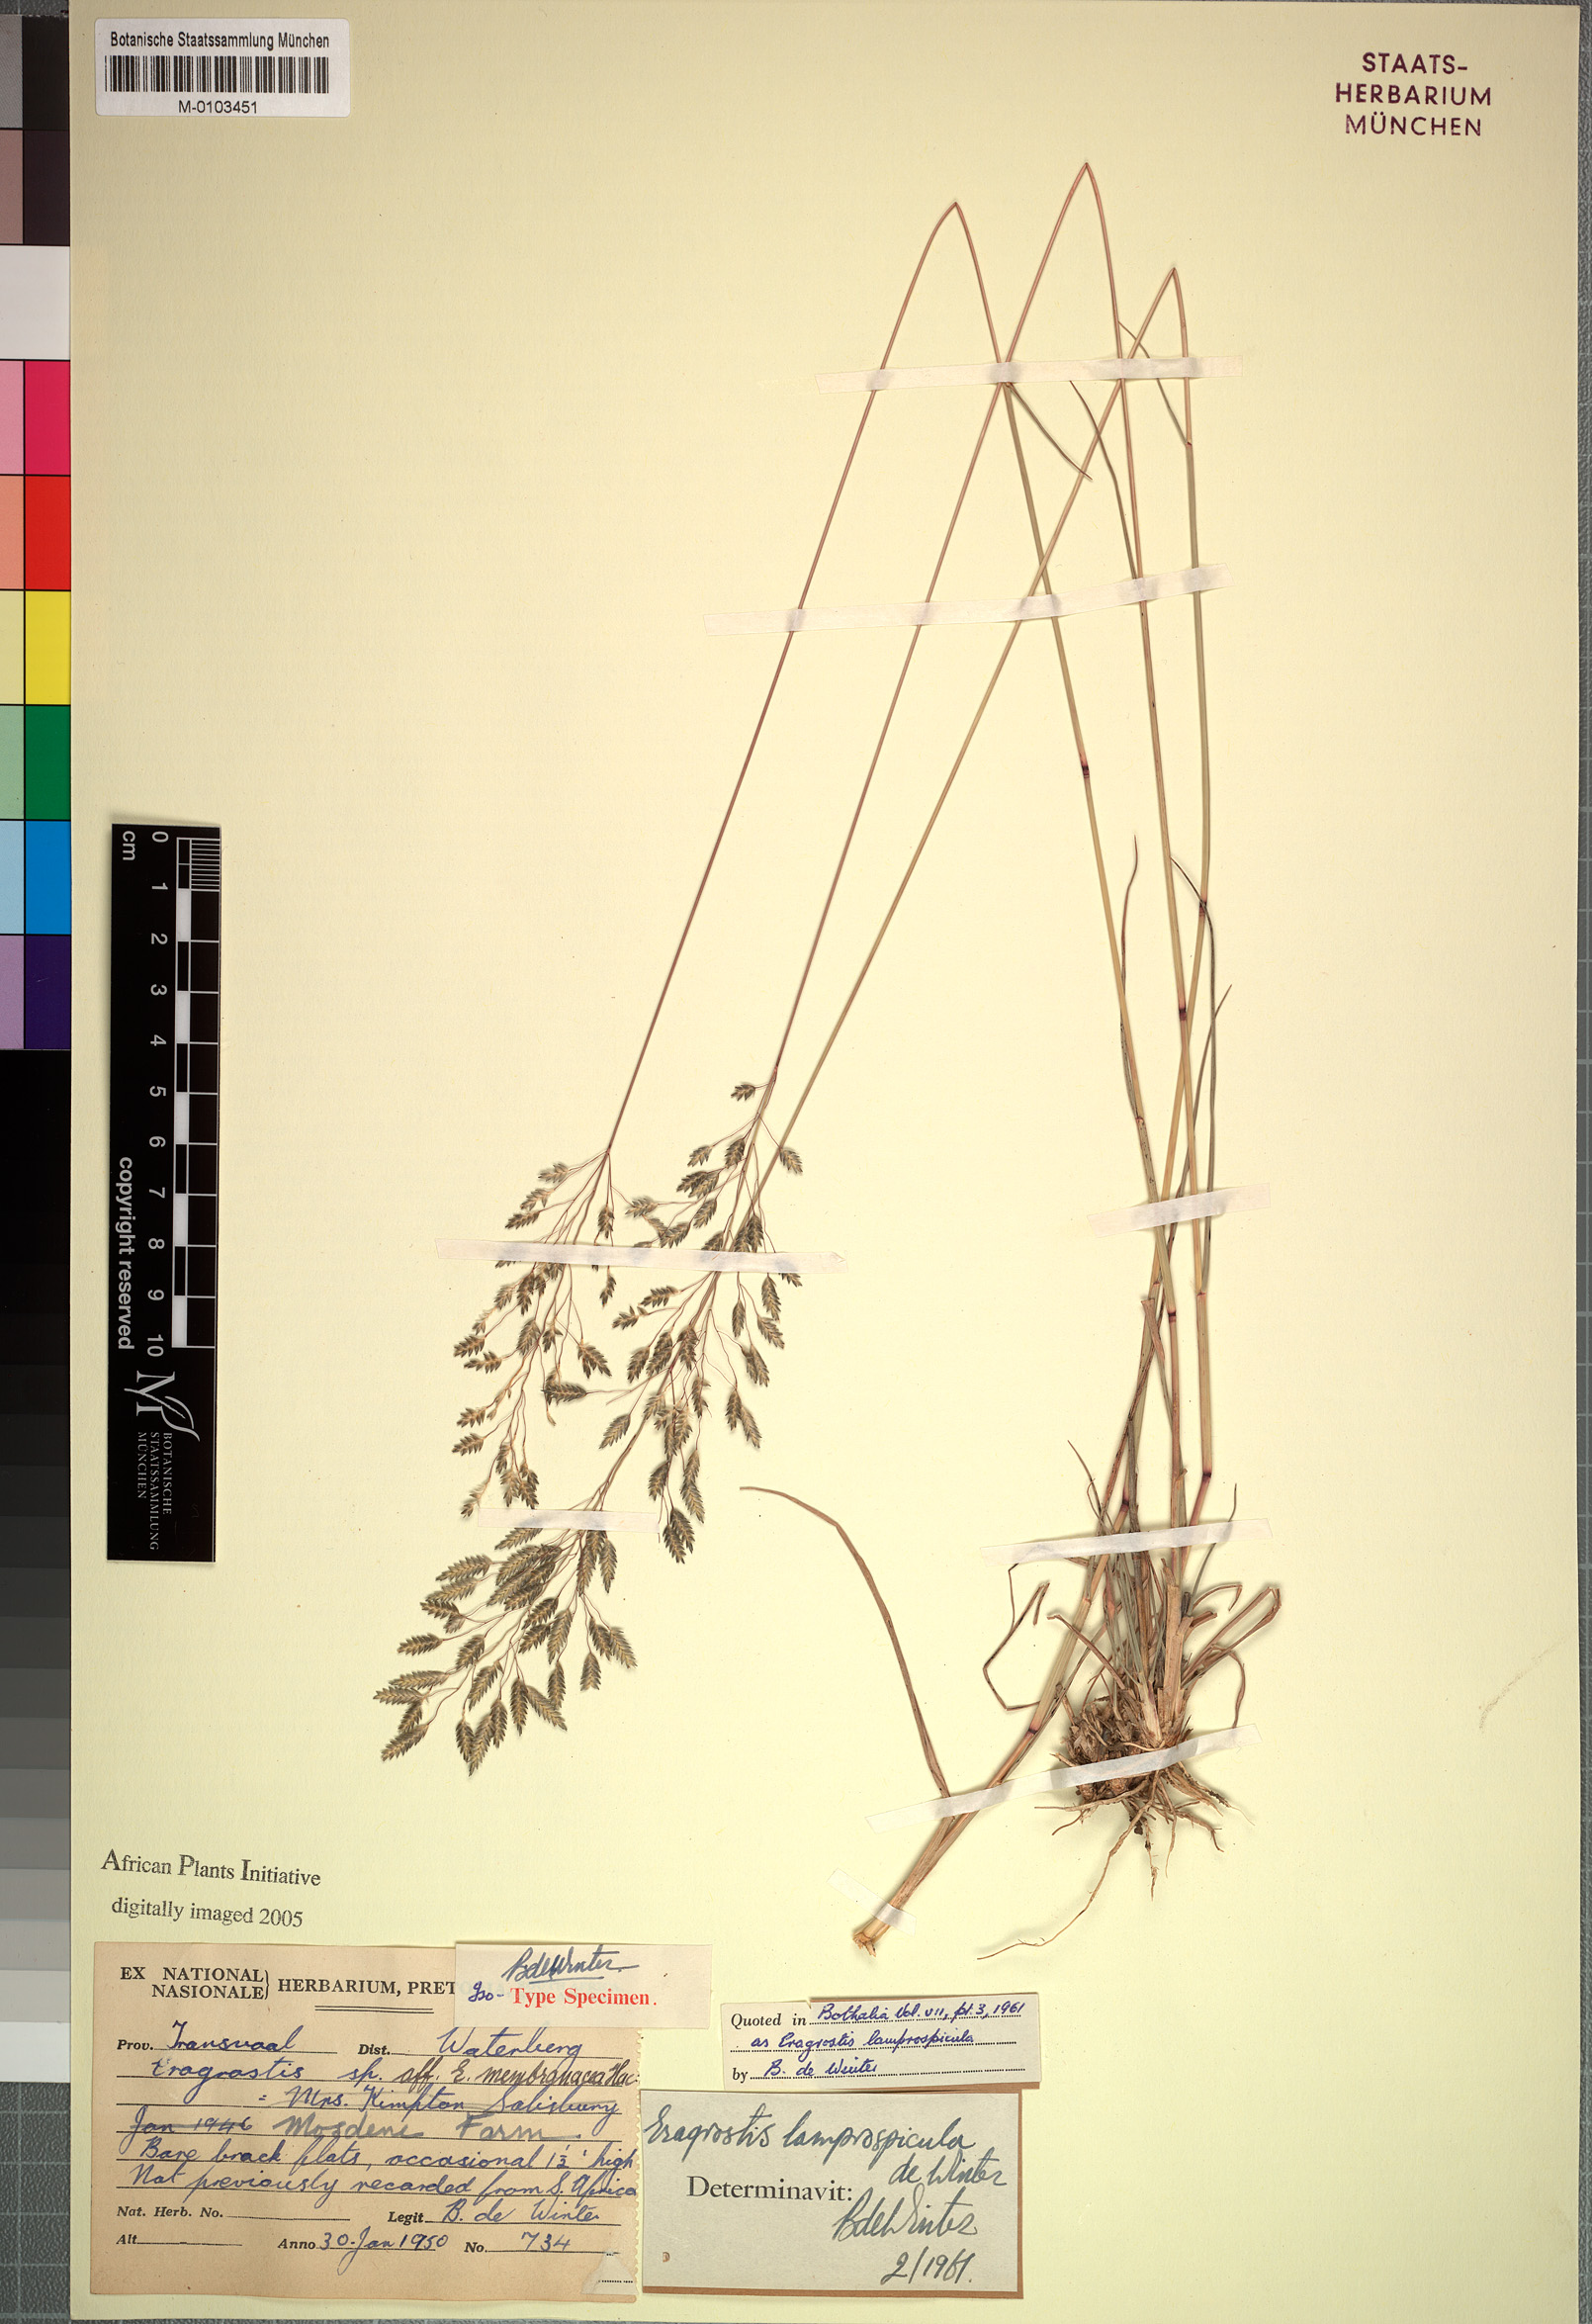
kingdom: Plantae
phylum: Tracheophyta
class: Liliopsida
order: Poales
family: Poaceae
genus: Eragrostis
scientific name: Eragrostis patentipilosa
